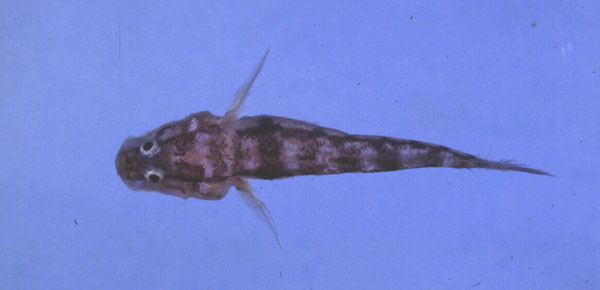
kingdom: Animalia
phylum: Chordata
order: Perciformes
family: Gobiidae
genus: Gobiopsis
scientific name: Gobiopsis exigua
